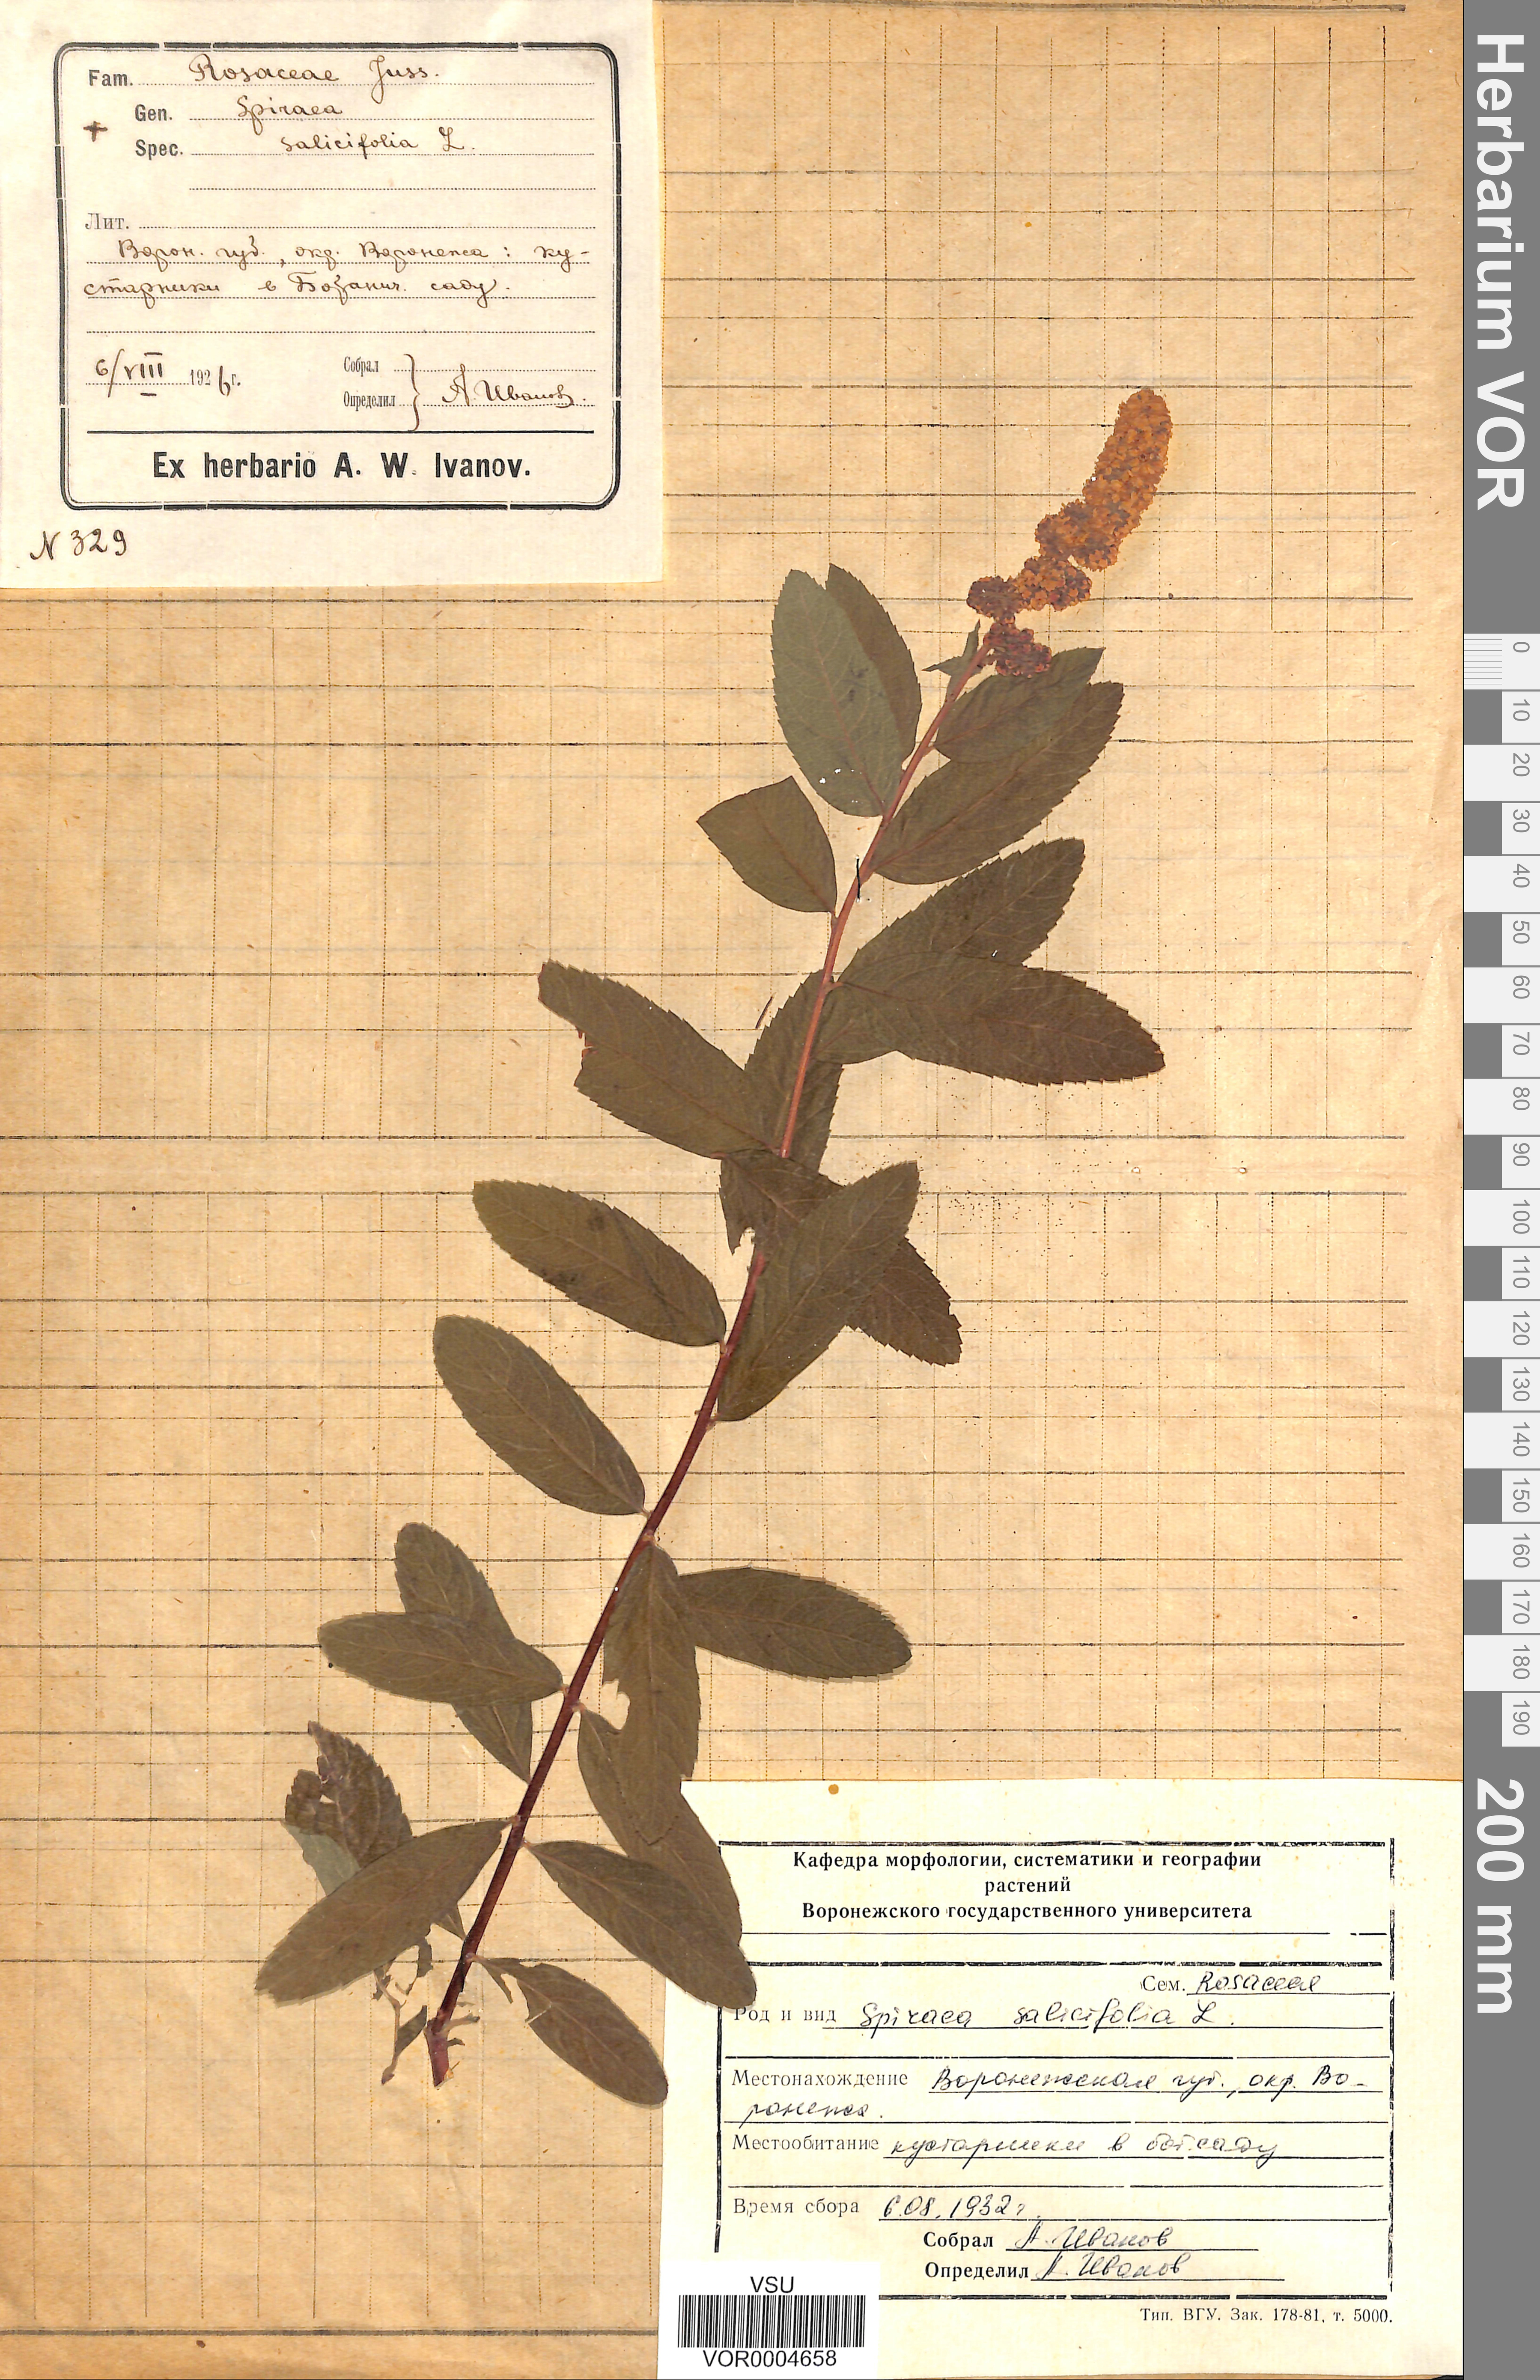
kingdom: Plantae
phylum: Tracheophyta
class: Magnoliopsida
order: Rosales
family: Rosaceae
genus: Spiraea
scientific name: Spiraea salicifolia
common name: Bridewort
